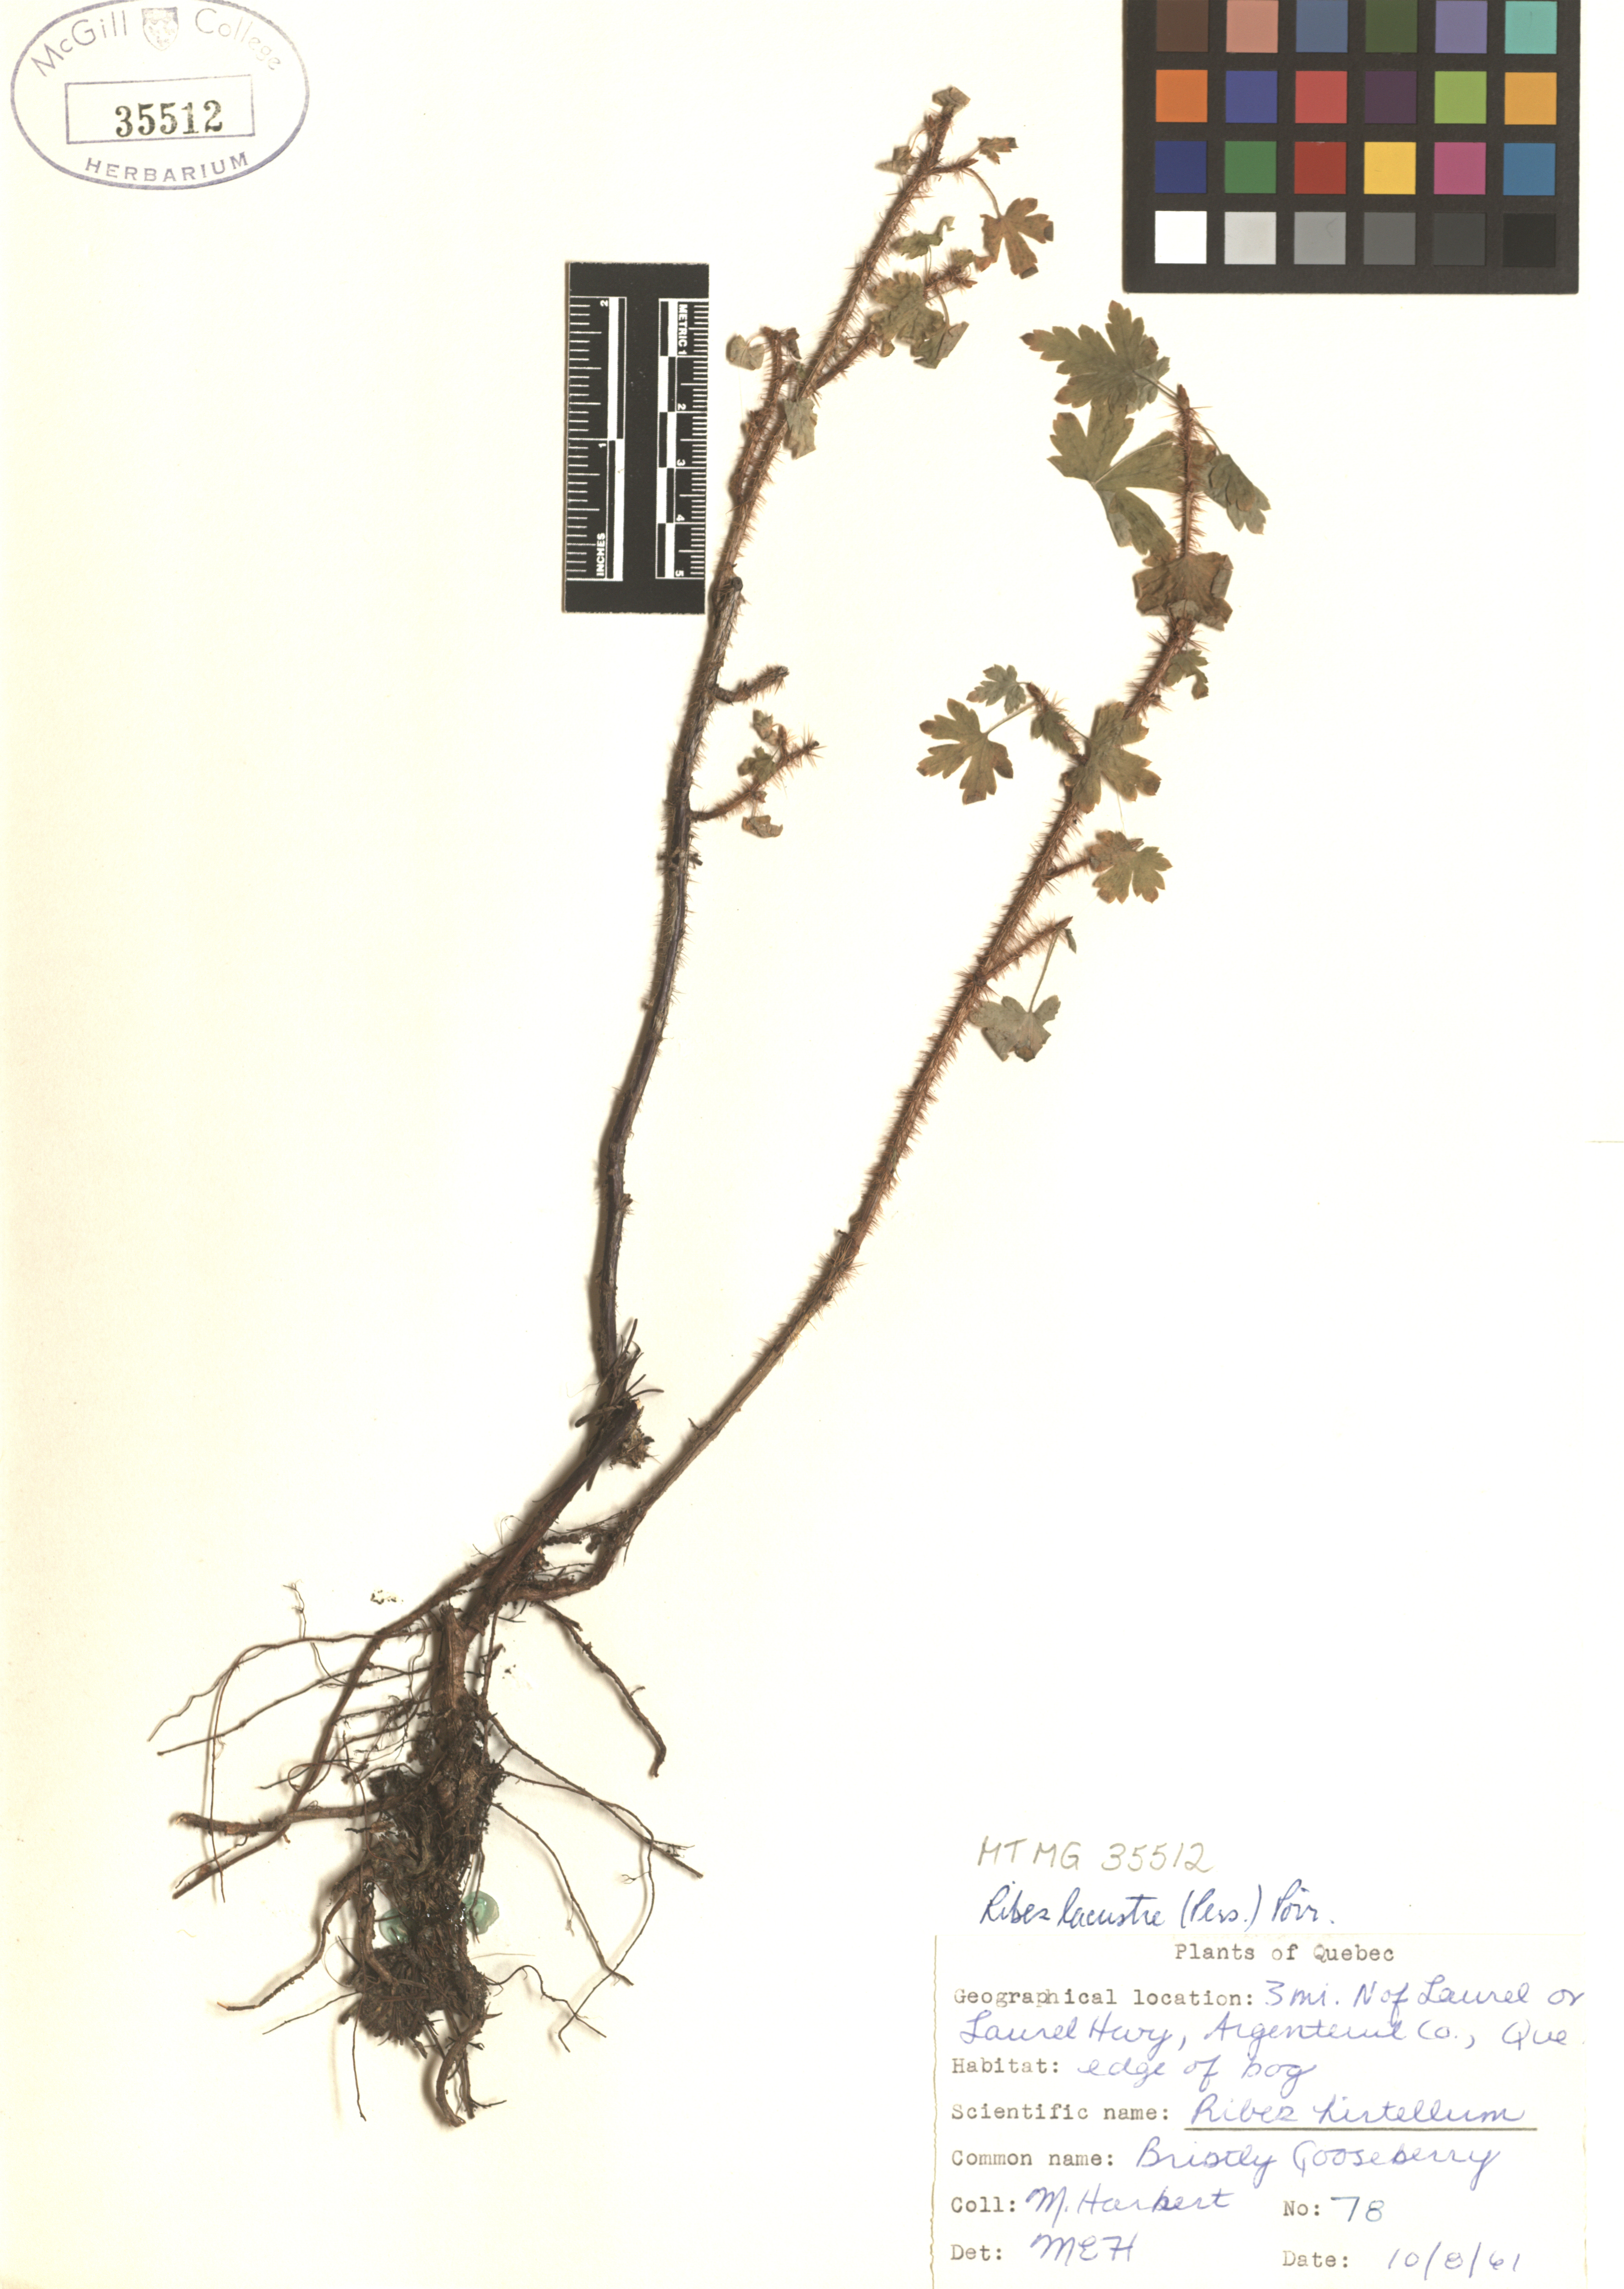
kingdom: Plantae
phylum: Tracheophyta
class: Magnoliopsida
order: Saxifragales
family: Grossulariaceae
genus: Ribes
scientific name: Ribes lacustre
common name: Black gooseberry
